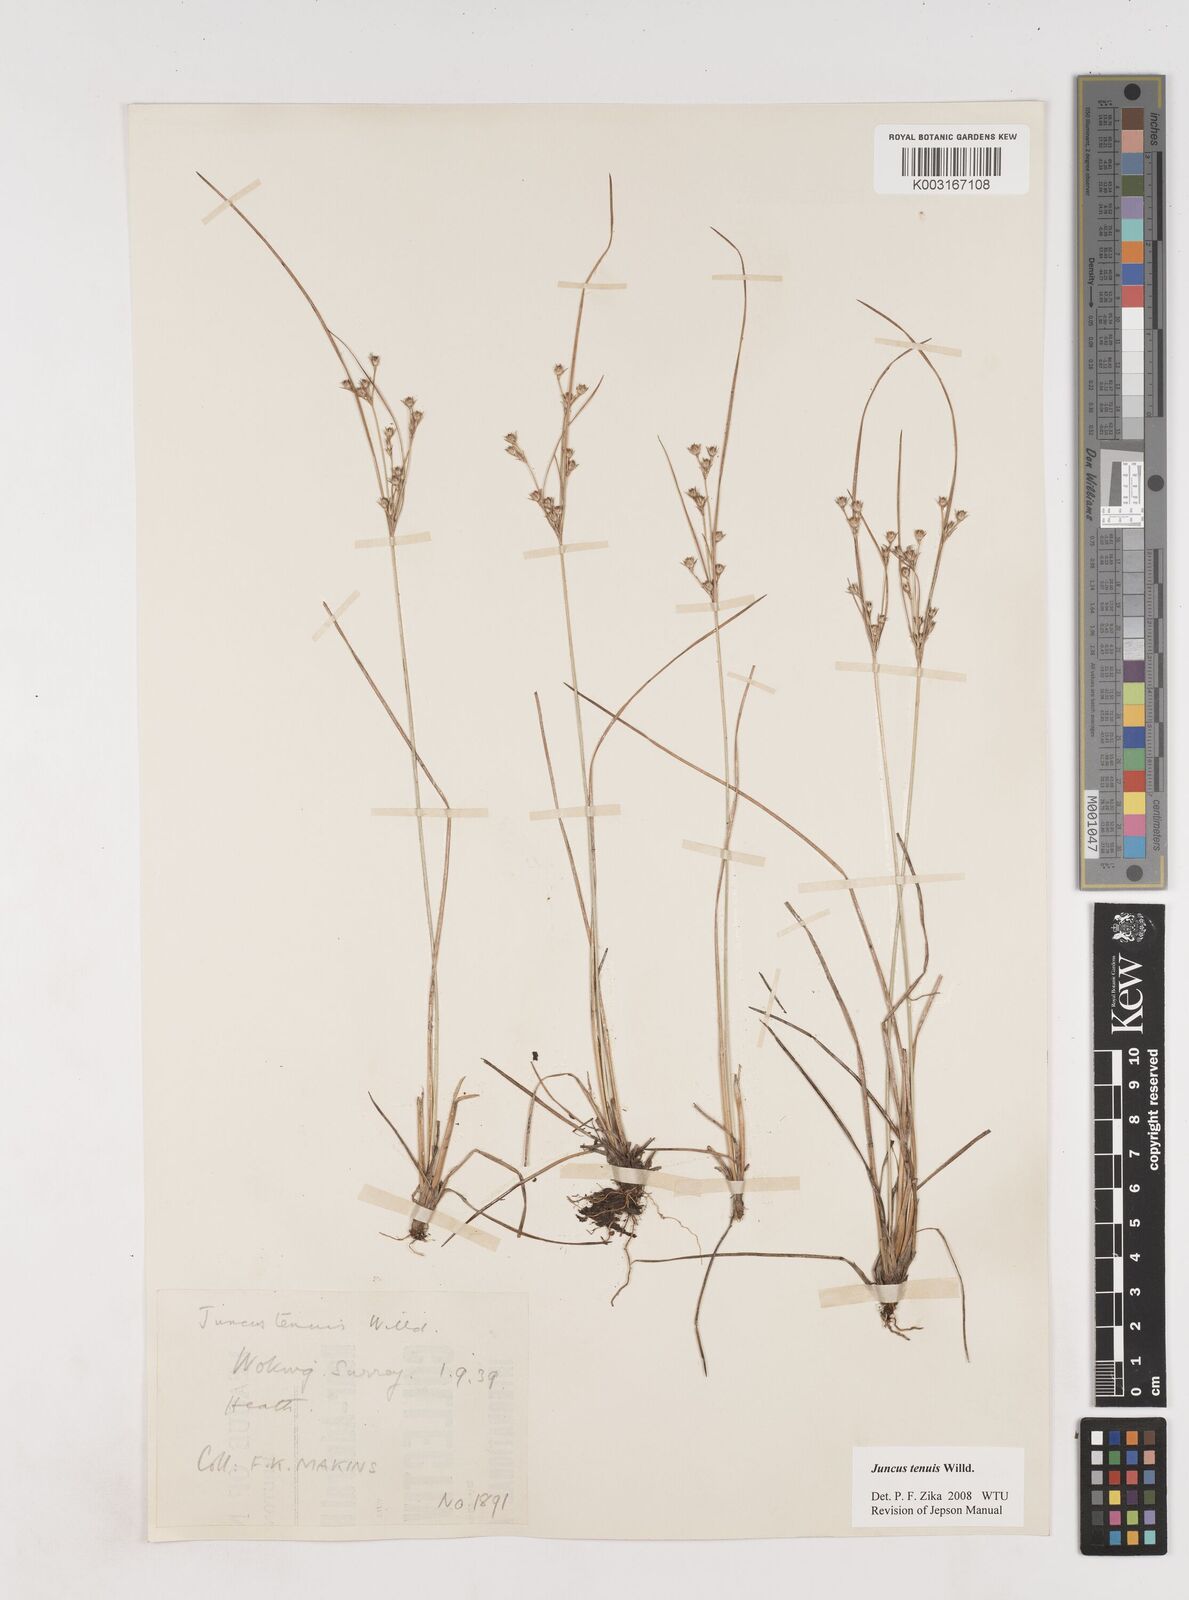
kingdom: Plantae
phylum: Tracheophyta
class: Liliopsida
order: Poales
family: Juncaceae
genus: Juncus
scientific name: Juncus occidentalis
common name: Western rush
